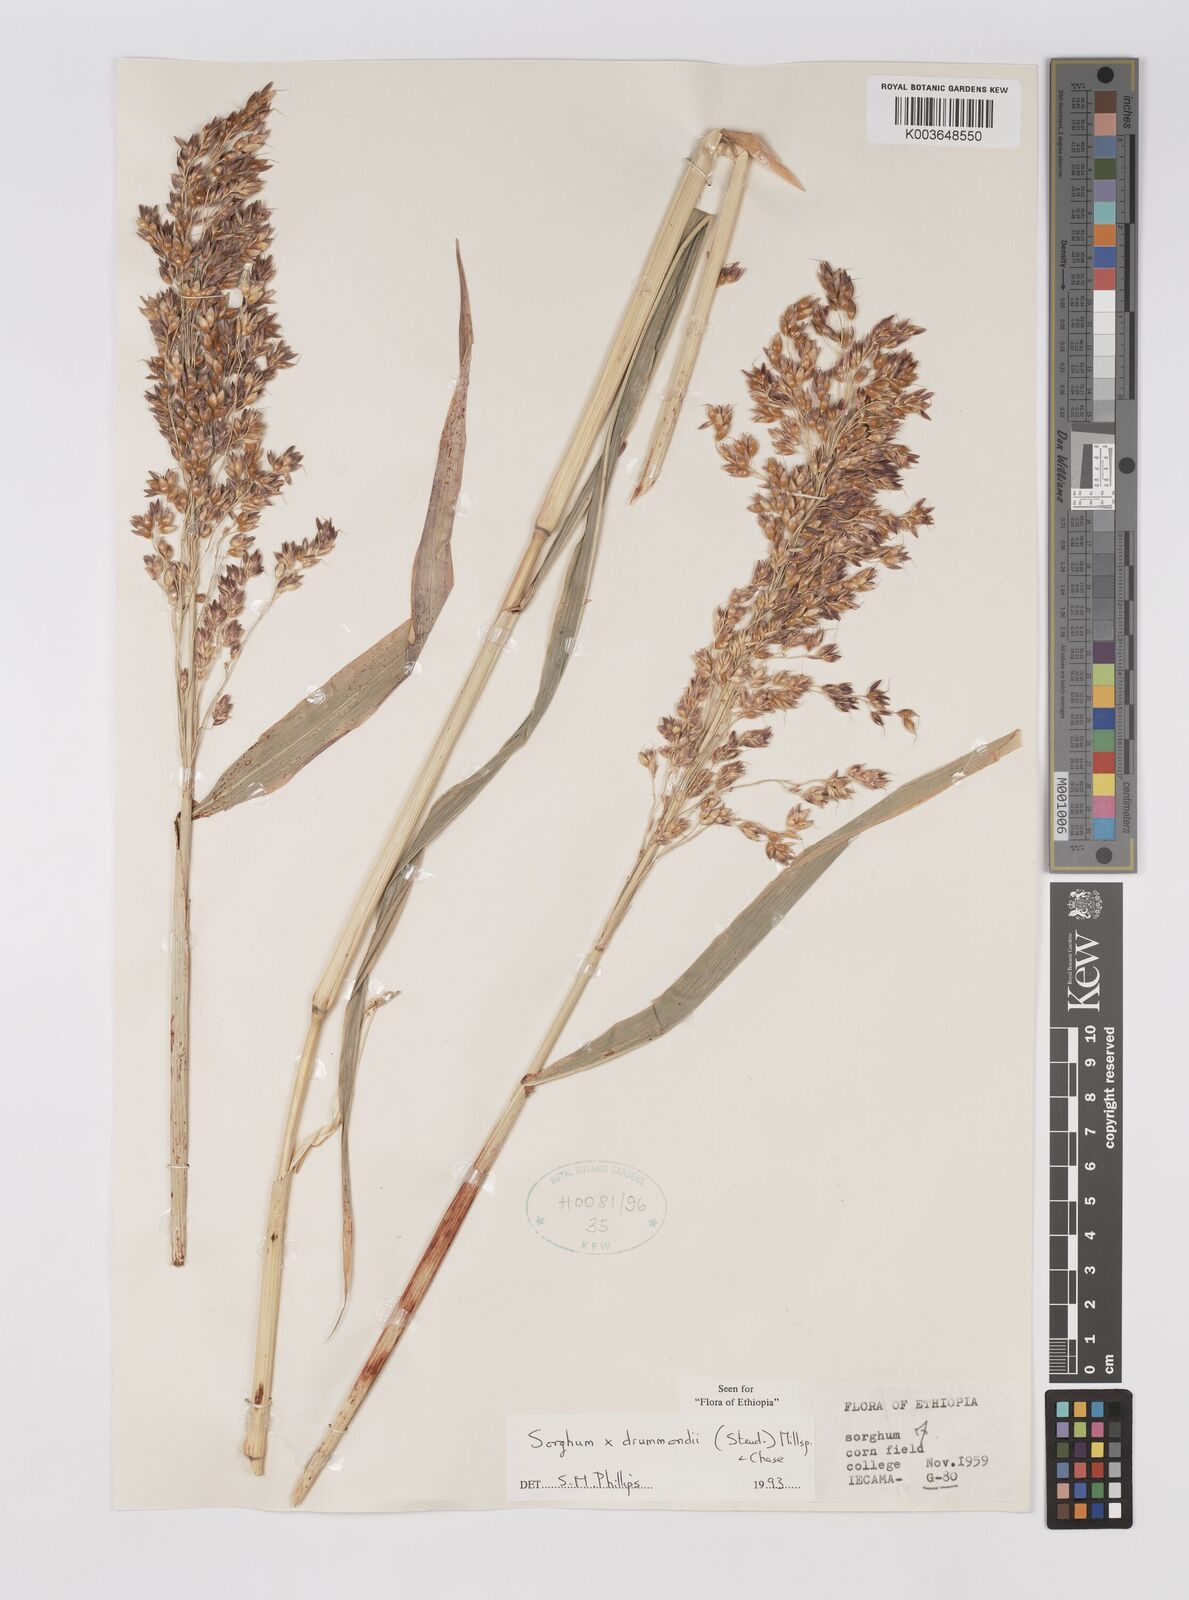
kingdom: Plantae
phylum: Tracheophyta
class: Liliopsida
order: Poales
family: Poaceae
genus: Sorghum
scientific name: Sorghum drummondii
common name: Sudangrass
